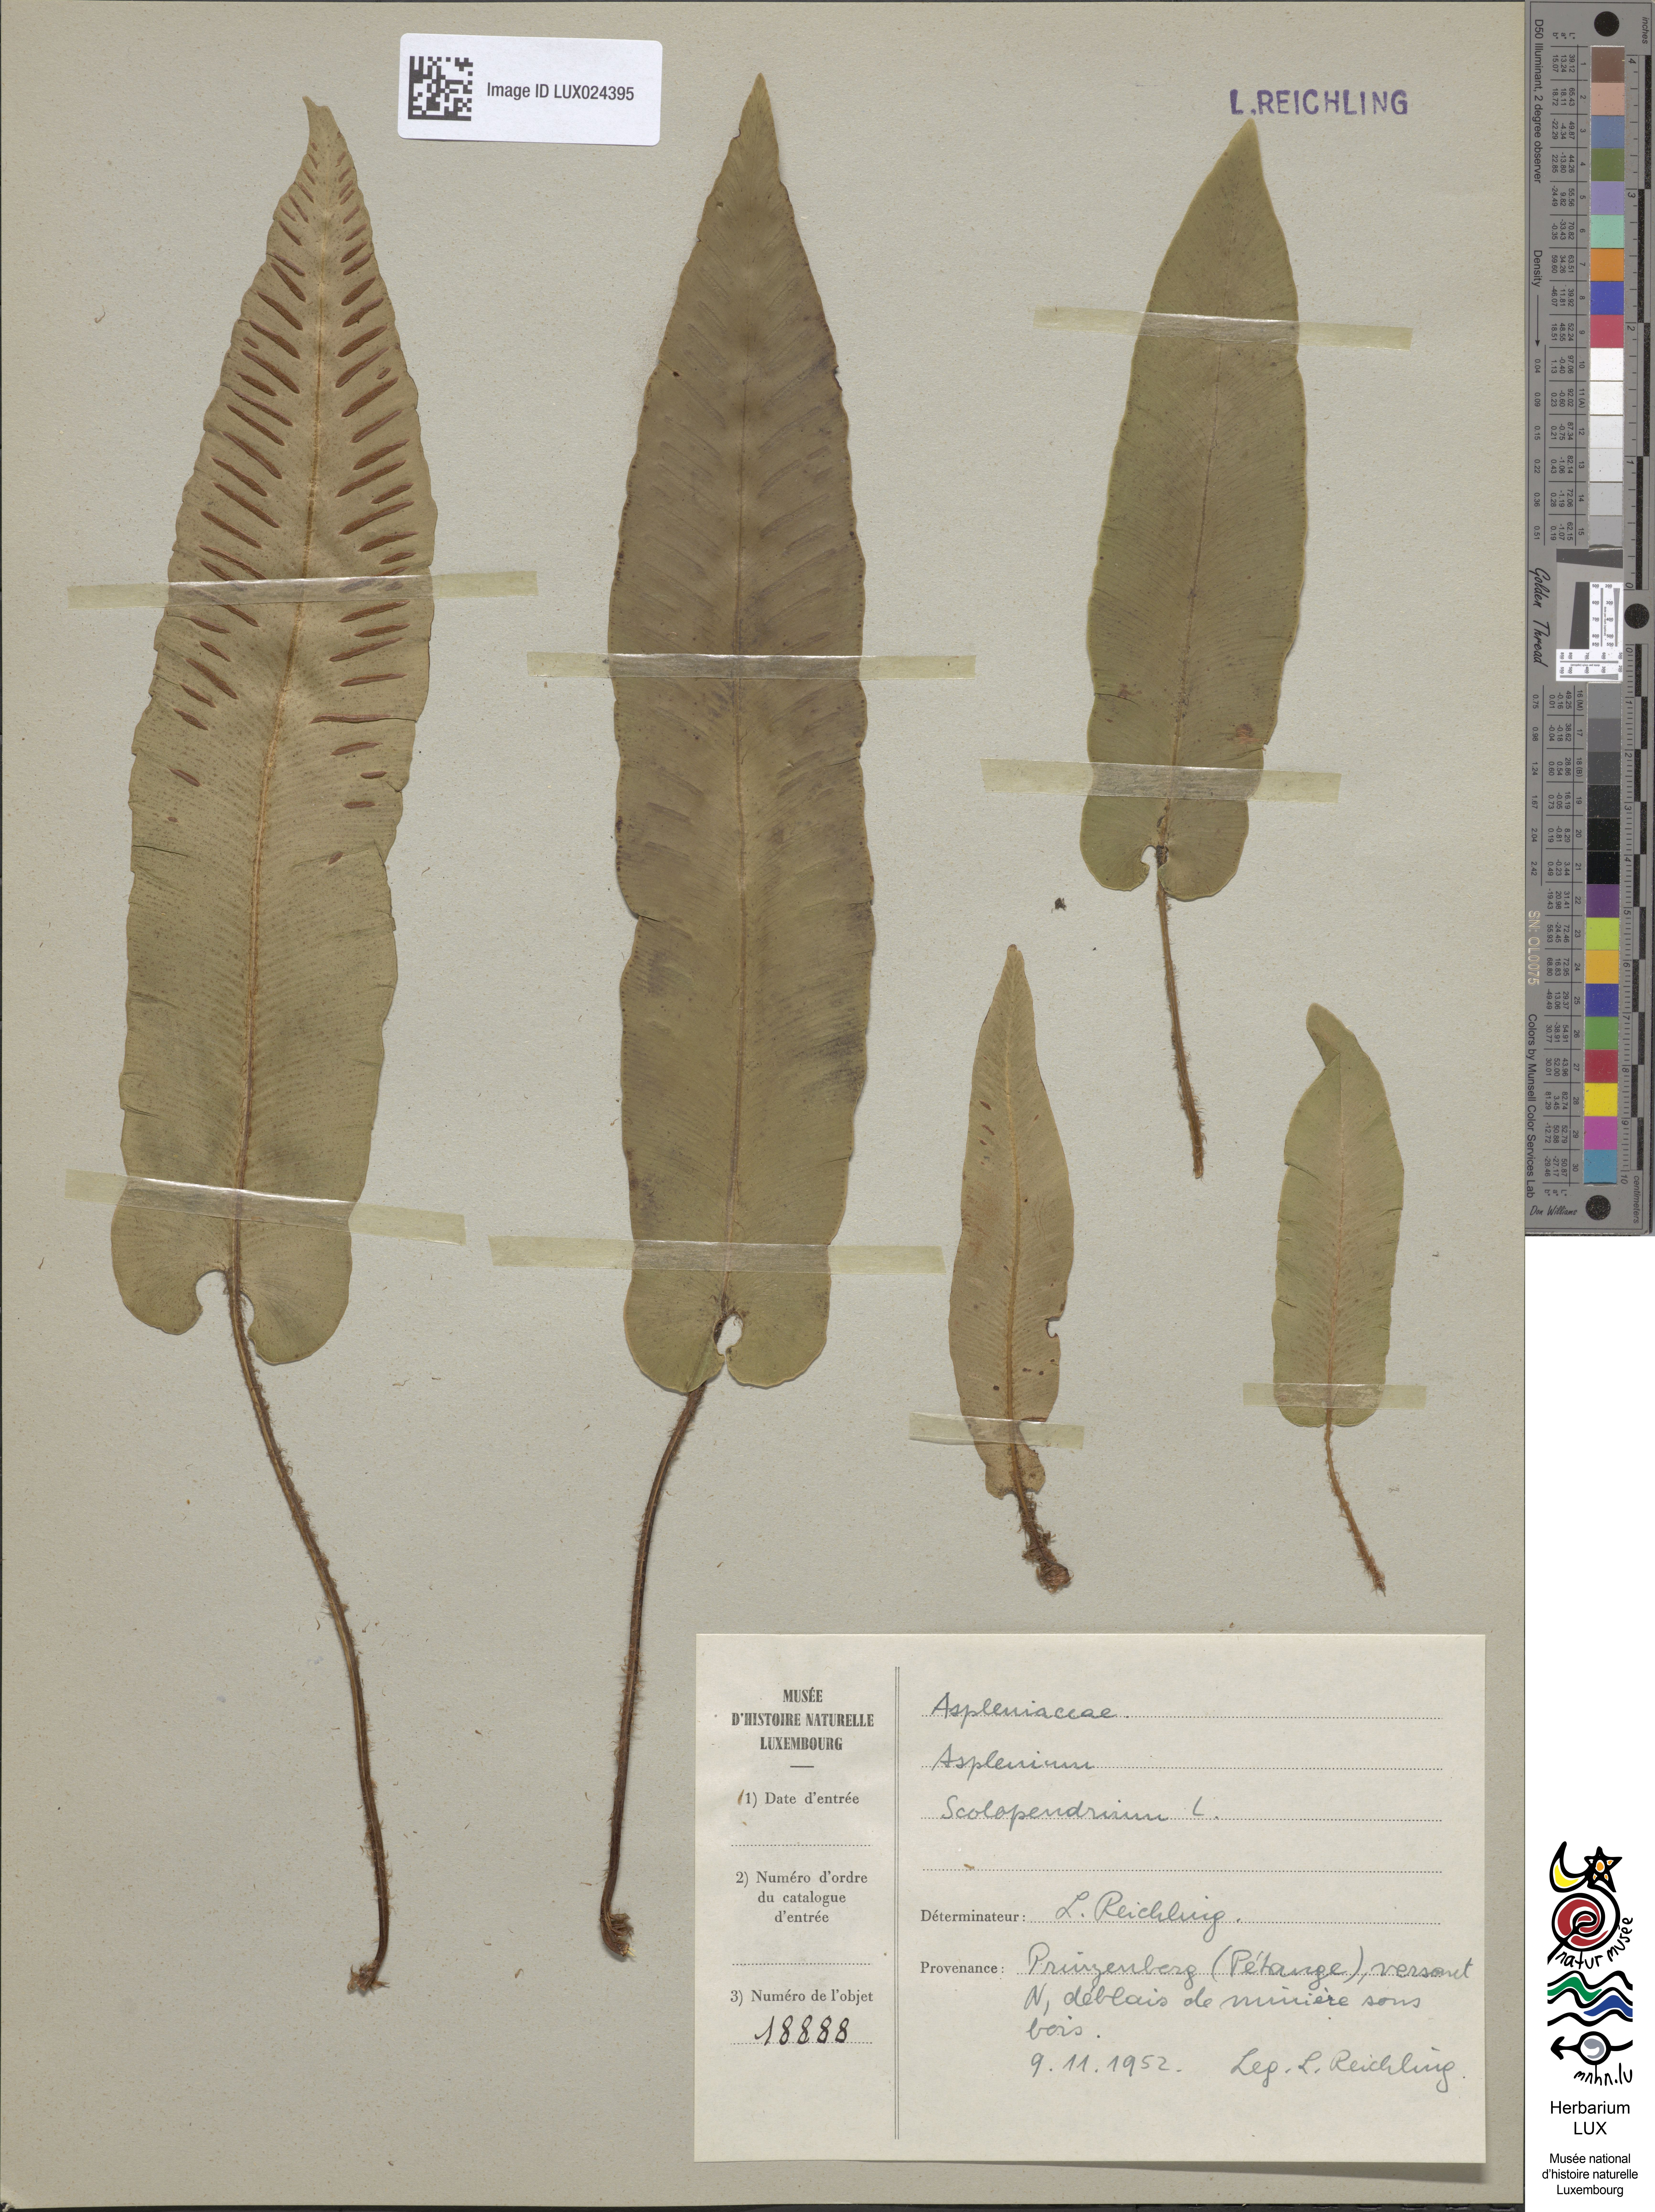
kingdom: Plantae
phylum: Tracheophyta
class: Polypodiopsida
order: Polypodiales
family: Aspleniaceae
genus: Asplenium
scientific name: Asplenium scolopendrium
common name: Hart's-tongue fern
